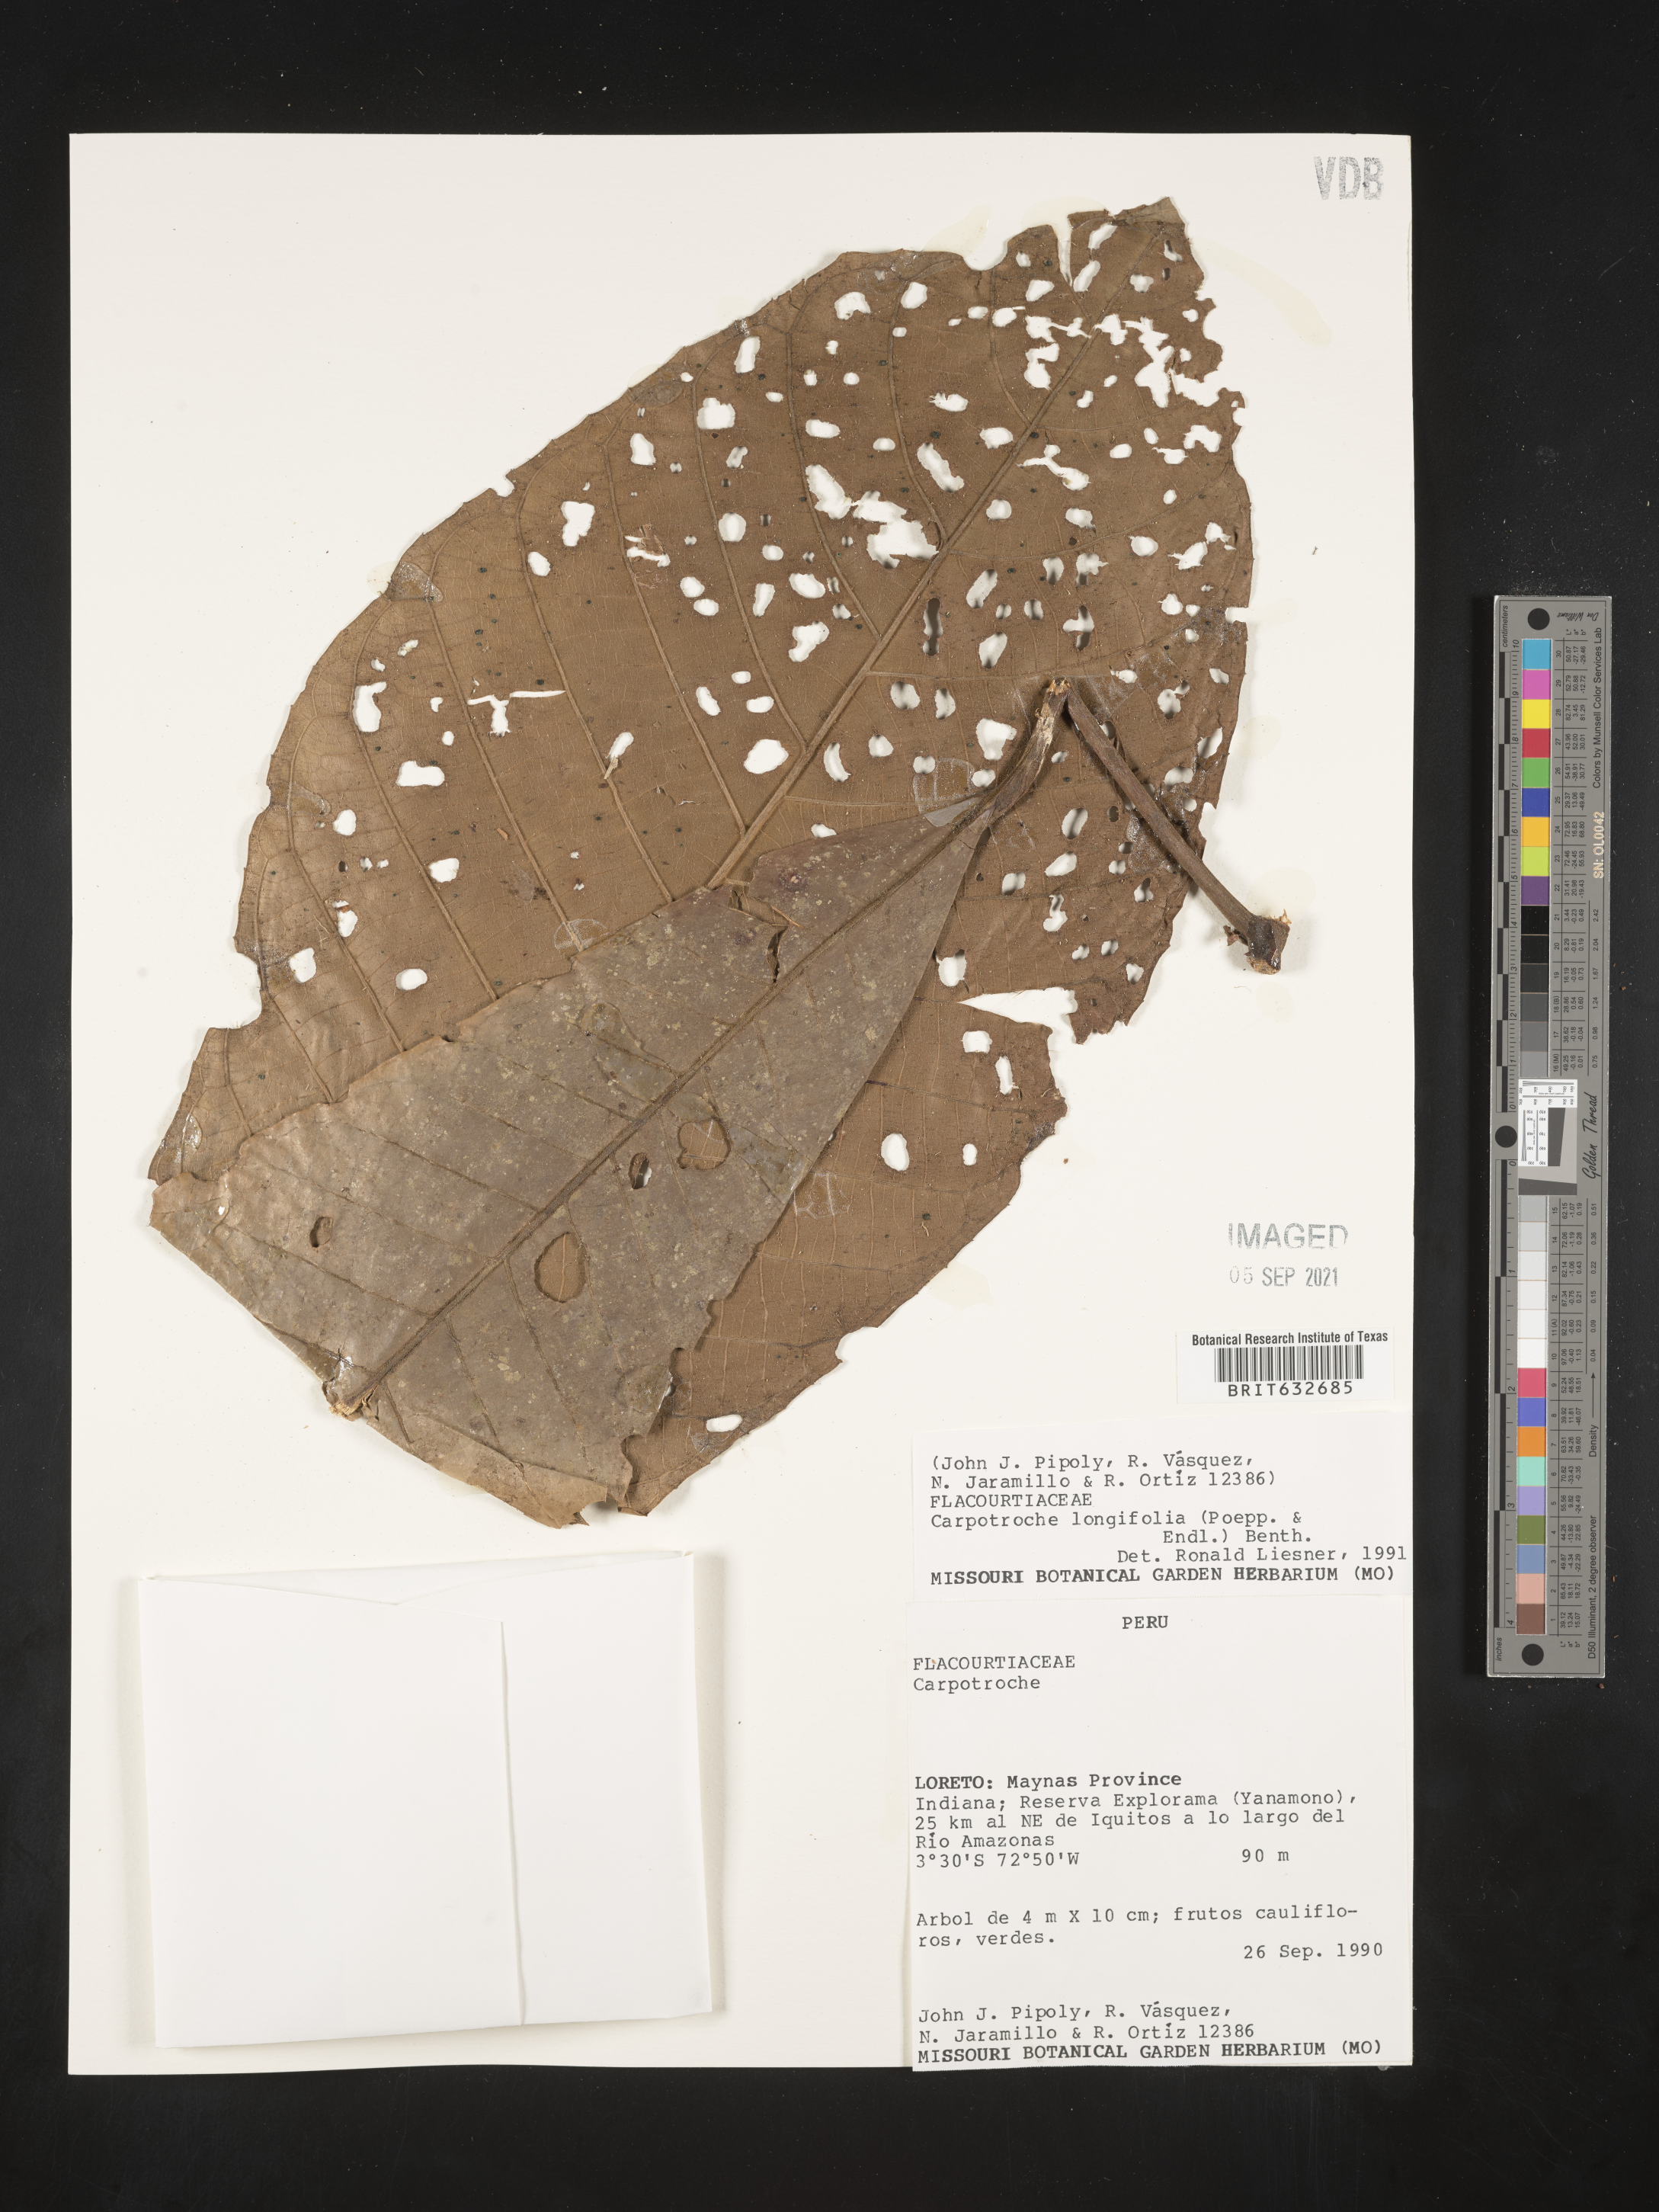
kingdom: Plantae
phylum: Tracheophyta
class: Magnoliopsida
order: Malpighiales
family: Achariaceae
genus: Carpotroche
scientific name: Carpotroche longifolia
